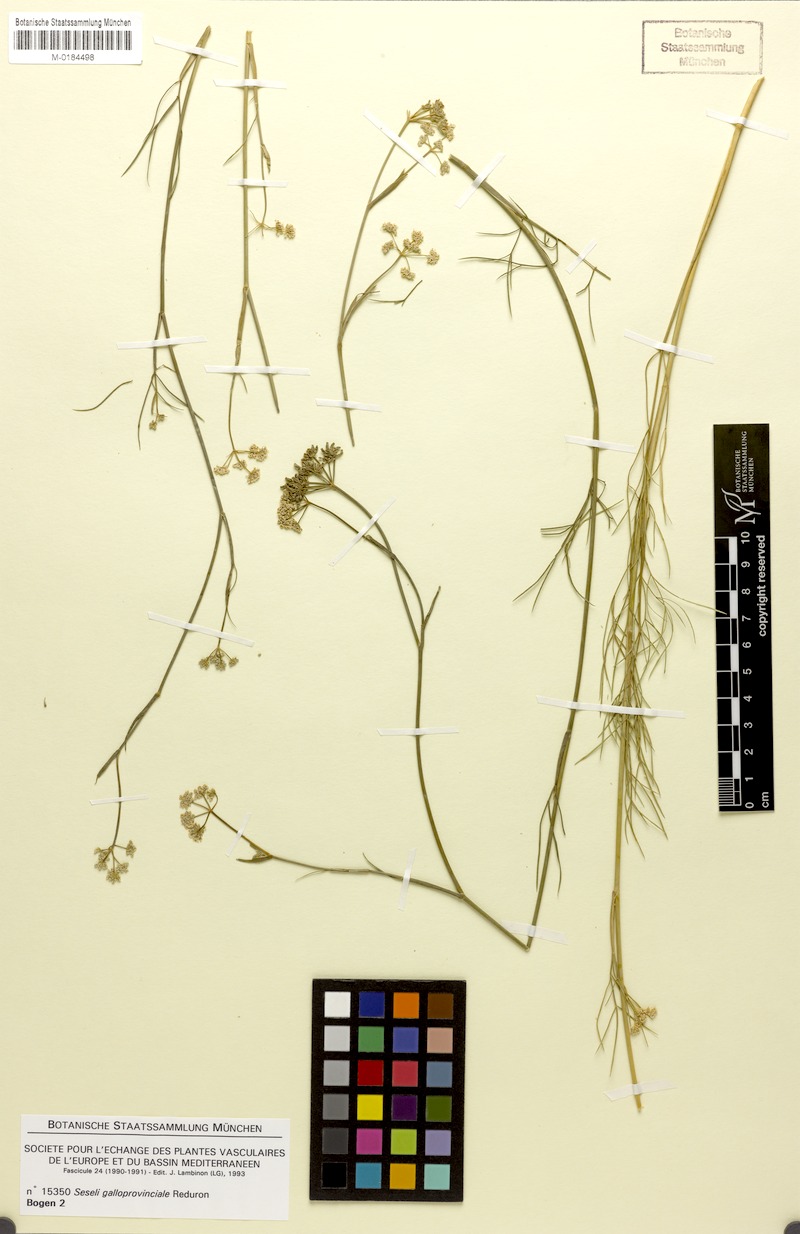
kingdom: Plantae
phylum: Tracheophyta
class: Magnoliopsida
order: Apiales
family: Apiaceae
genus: Seseli
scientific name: Seseli galloprovinciale
